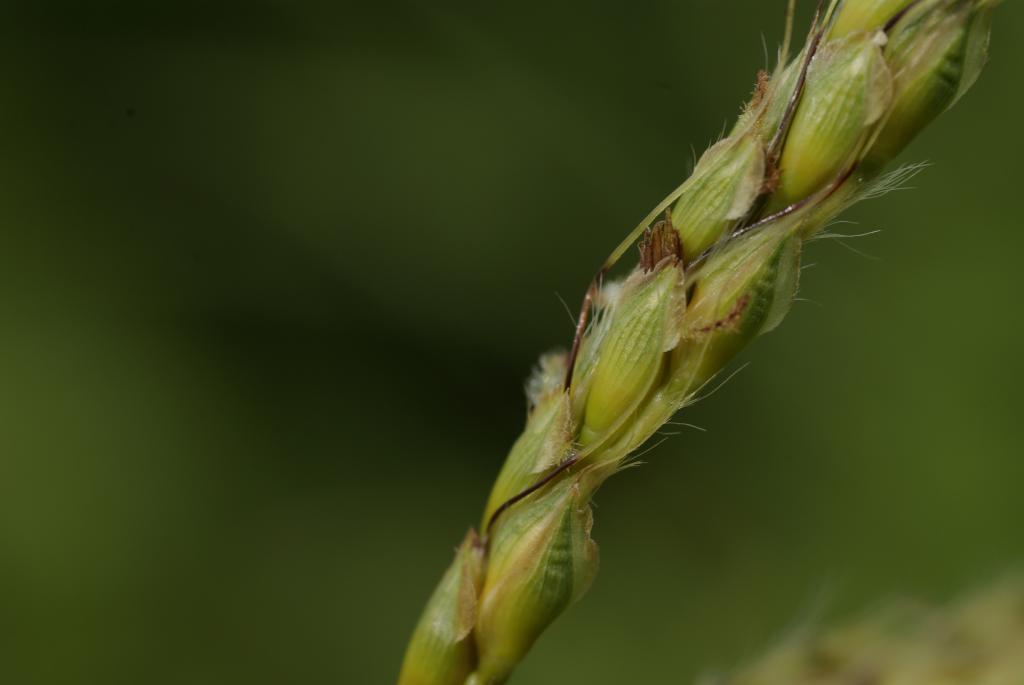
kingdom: Plantae
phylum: Tracheophyta
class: Liliopsida
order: Poales
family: Poaceae
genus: Polytrias
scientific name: Polytrias indica
